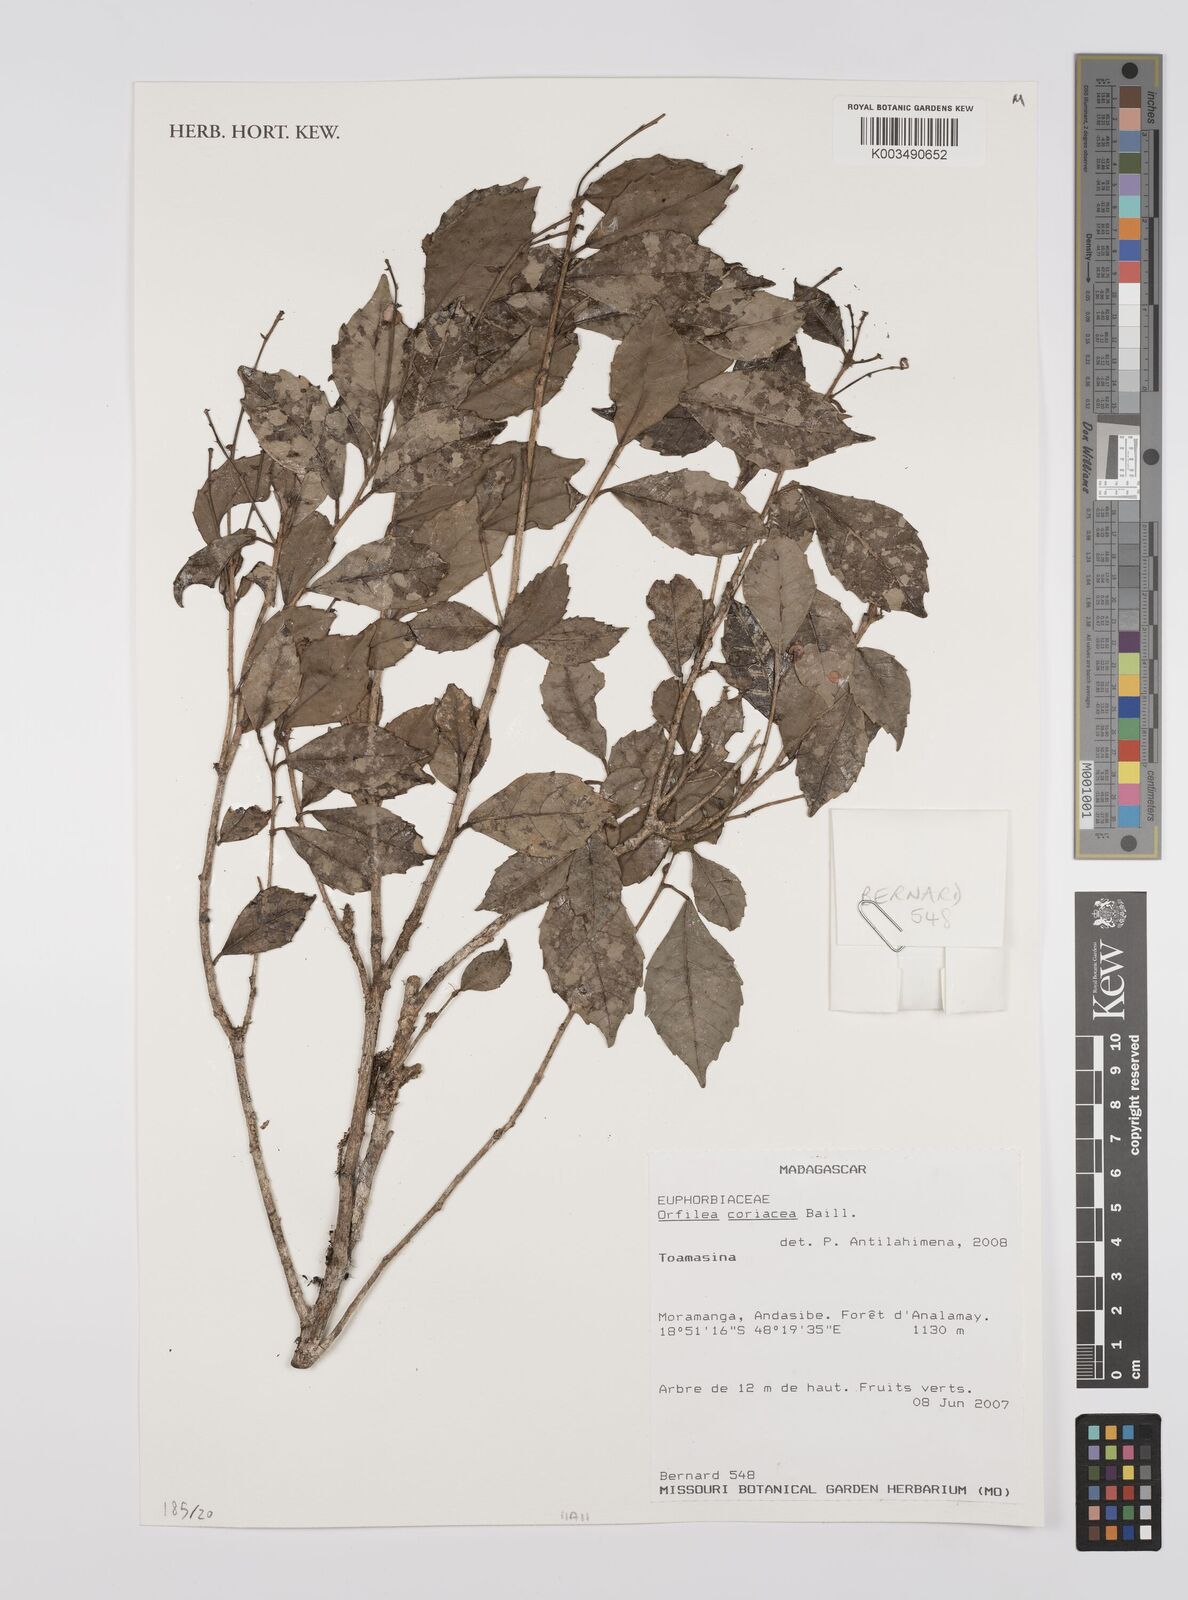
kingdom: Plantae
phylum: Tracheophyta
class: Magnoliopsida
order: Malpighiales
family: Euphorbiaceae
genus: Orfilea
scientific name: Orfilea coriacea
